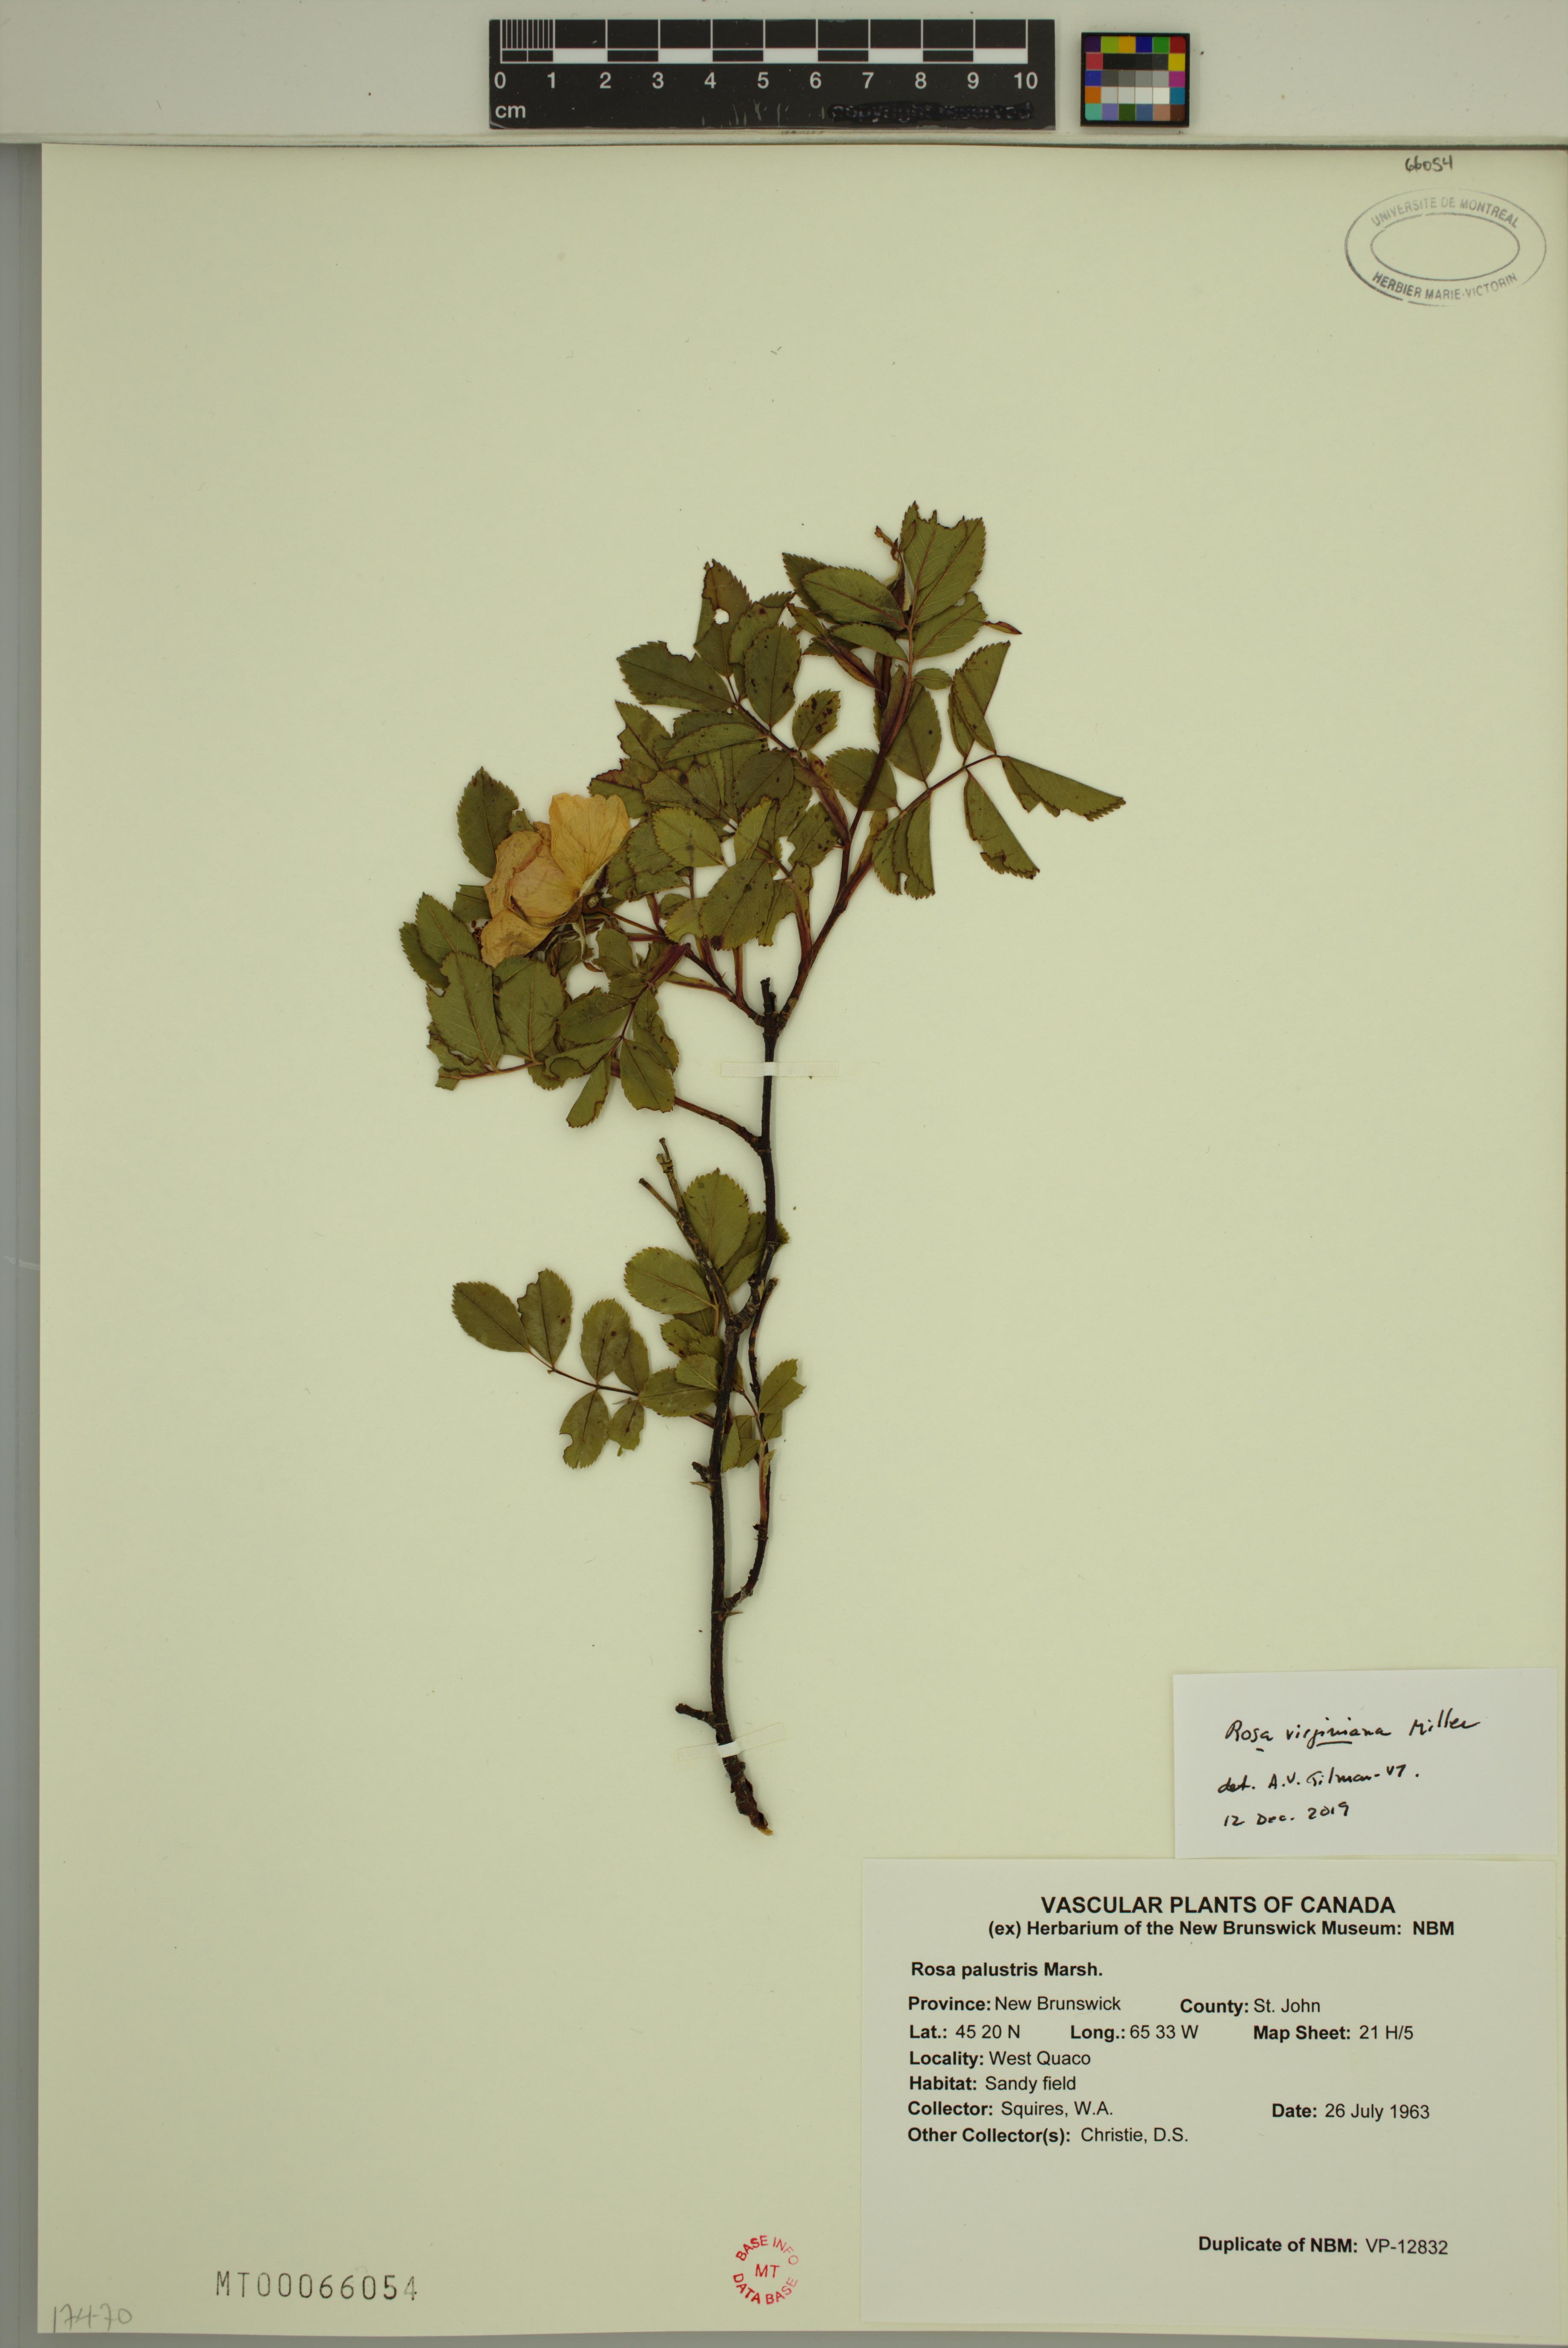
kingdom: Plantae
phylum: Tracheophyta
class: Magnoliopsida
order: Rosales
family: Rosaceae
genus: Rosa
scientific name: Rosa carolina
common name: Pasture rose
